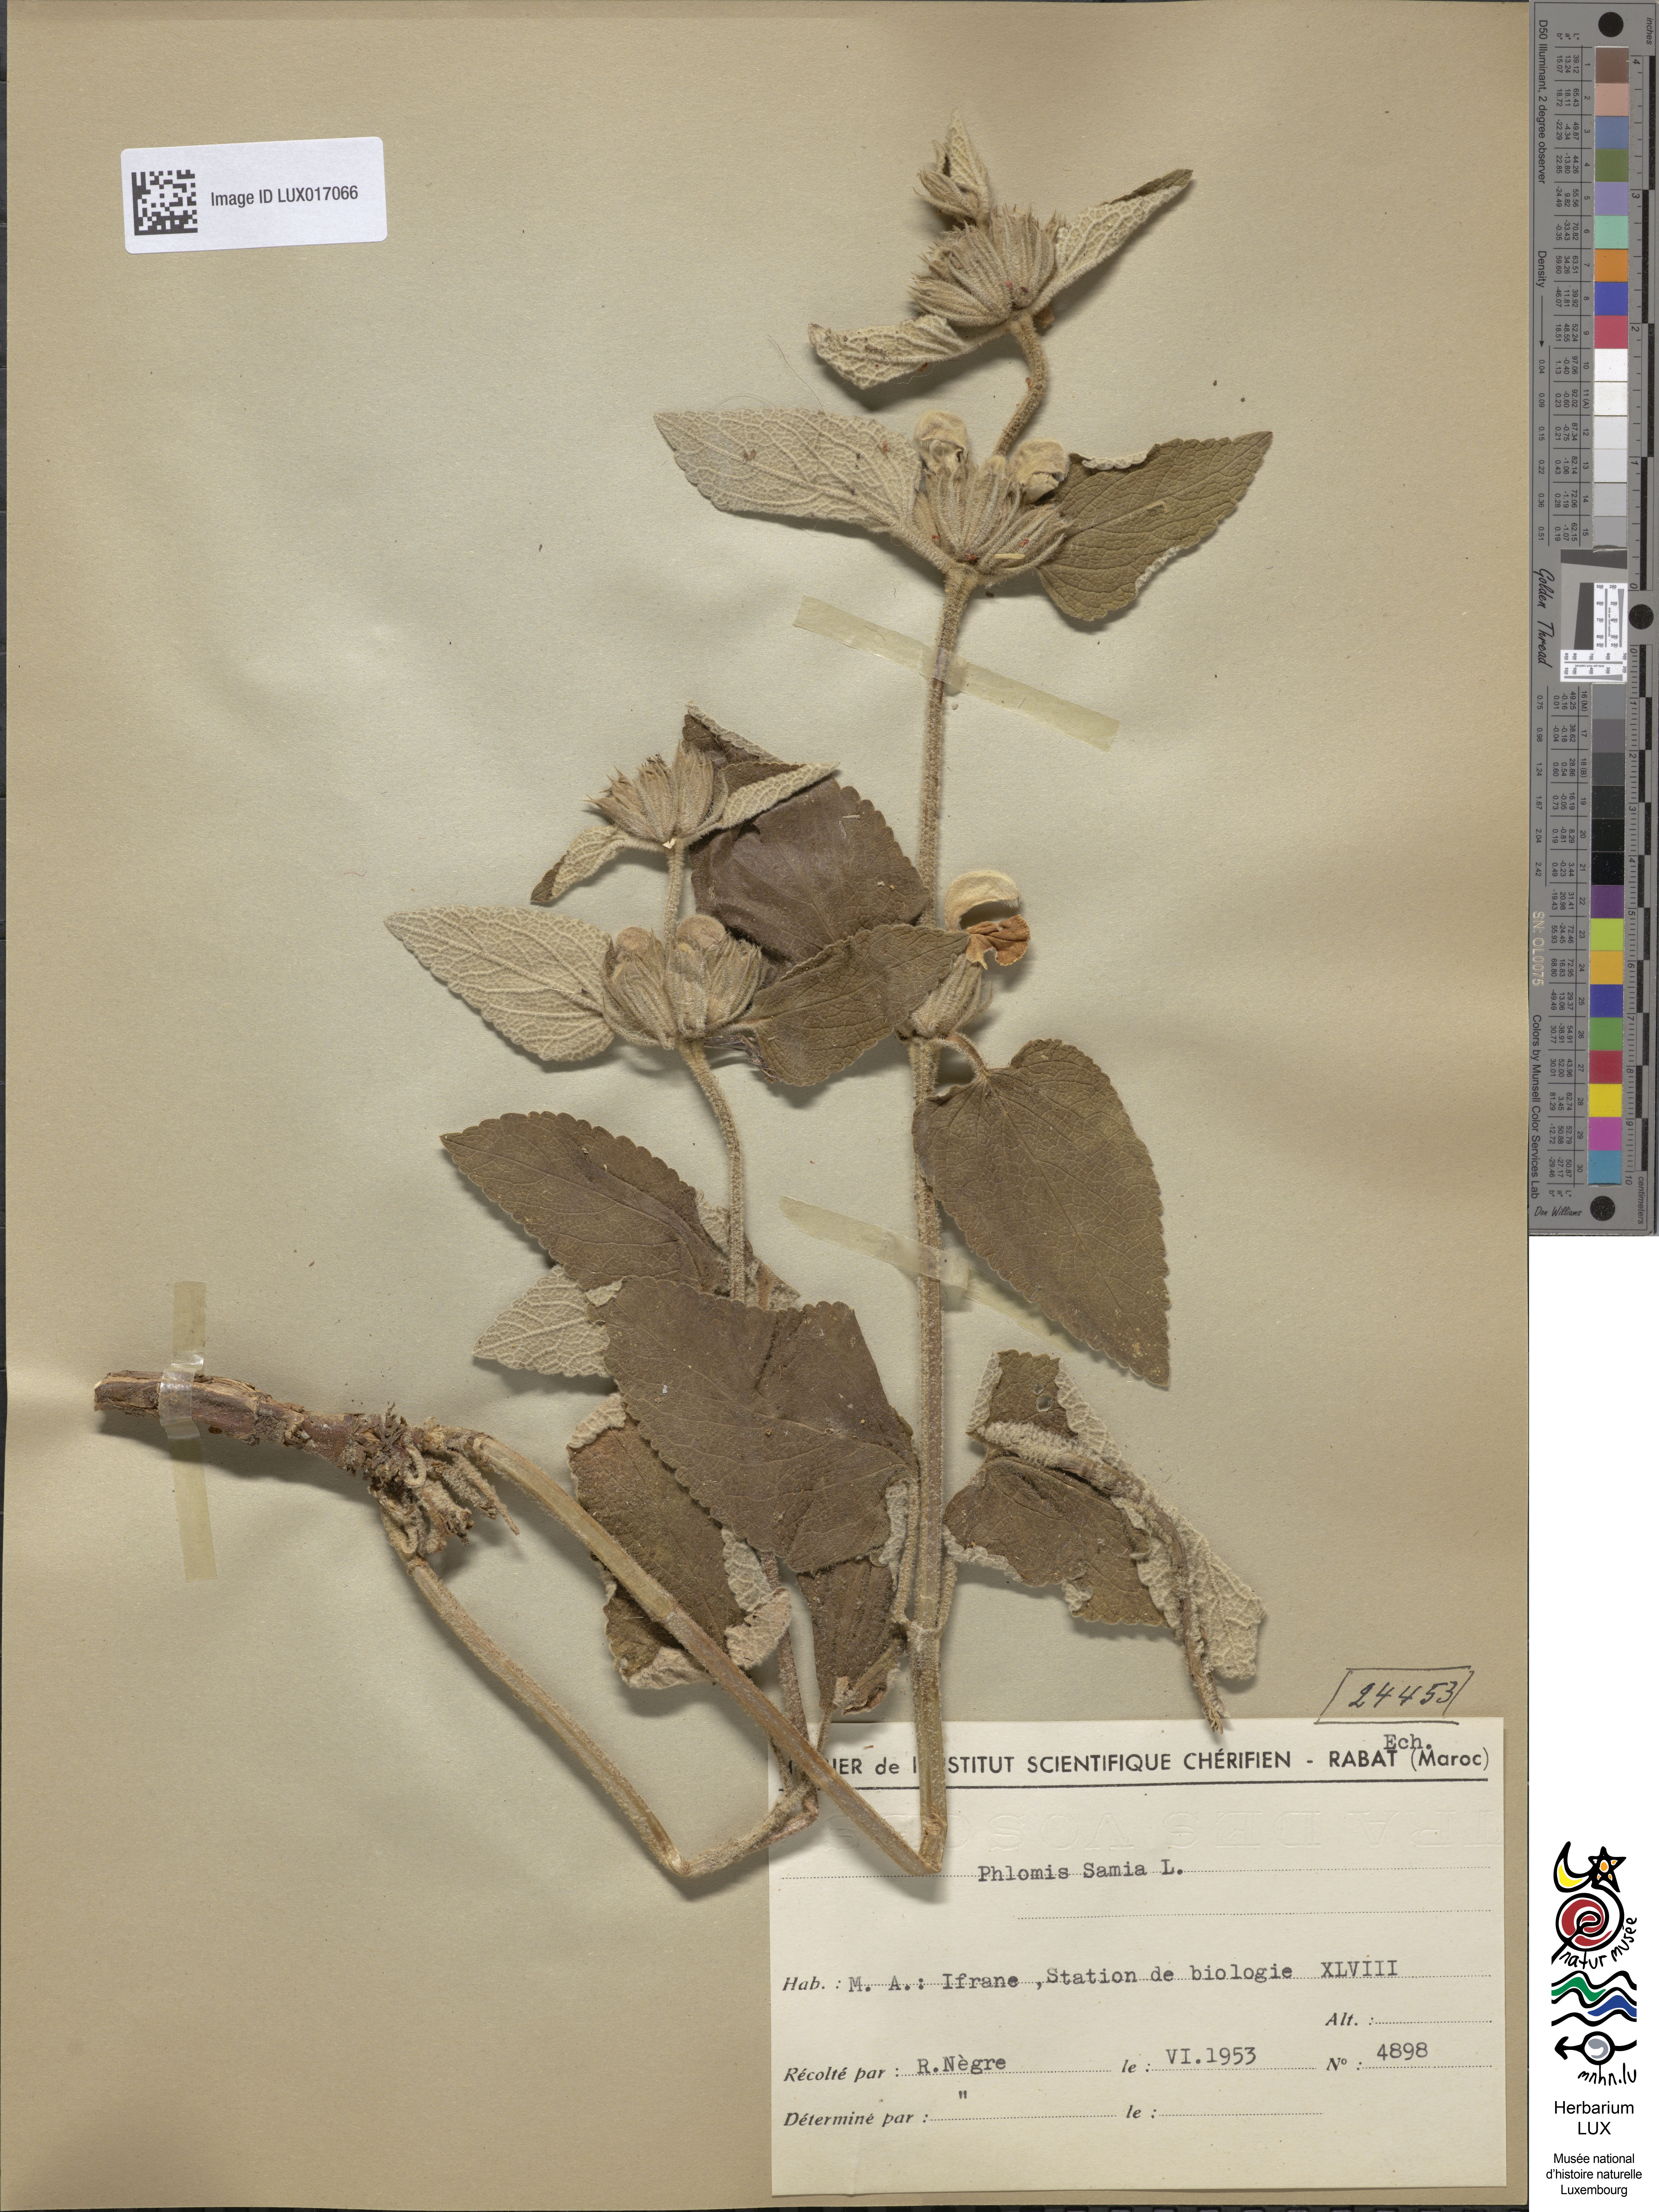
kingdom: Plantae
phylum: Tracheophyta
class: Magnoliopsida
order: Lamiales
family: Lamiaceae
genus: Phlomis
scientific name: Phlomis samia
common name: Greek sage
